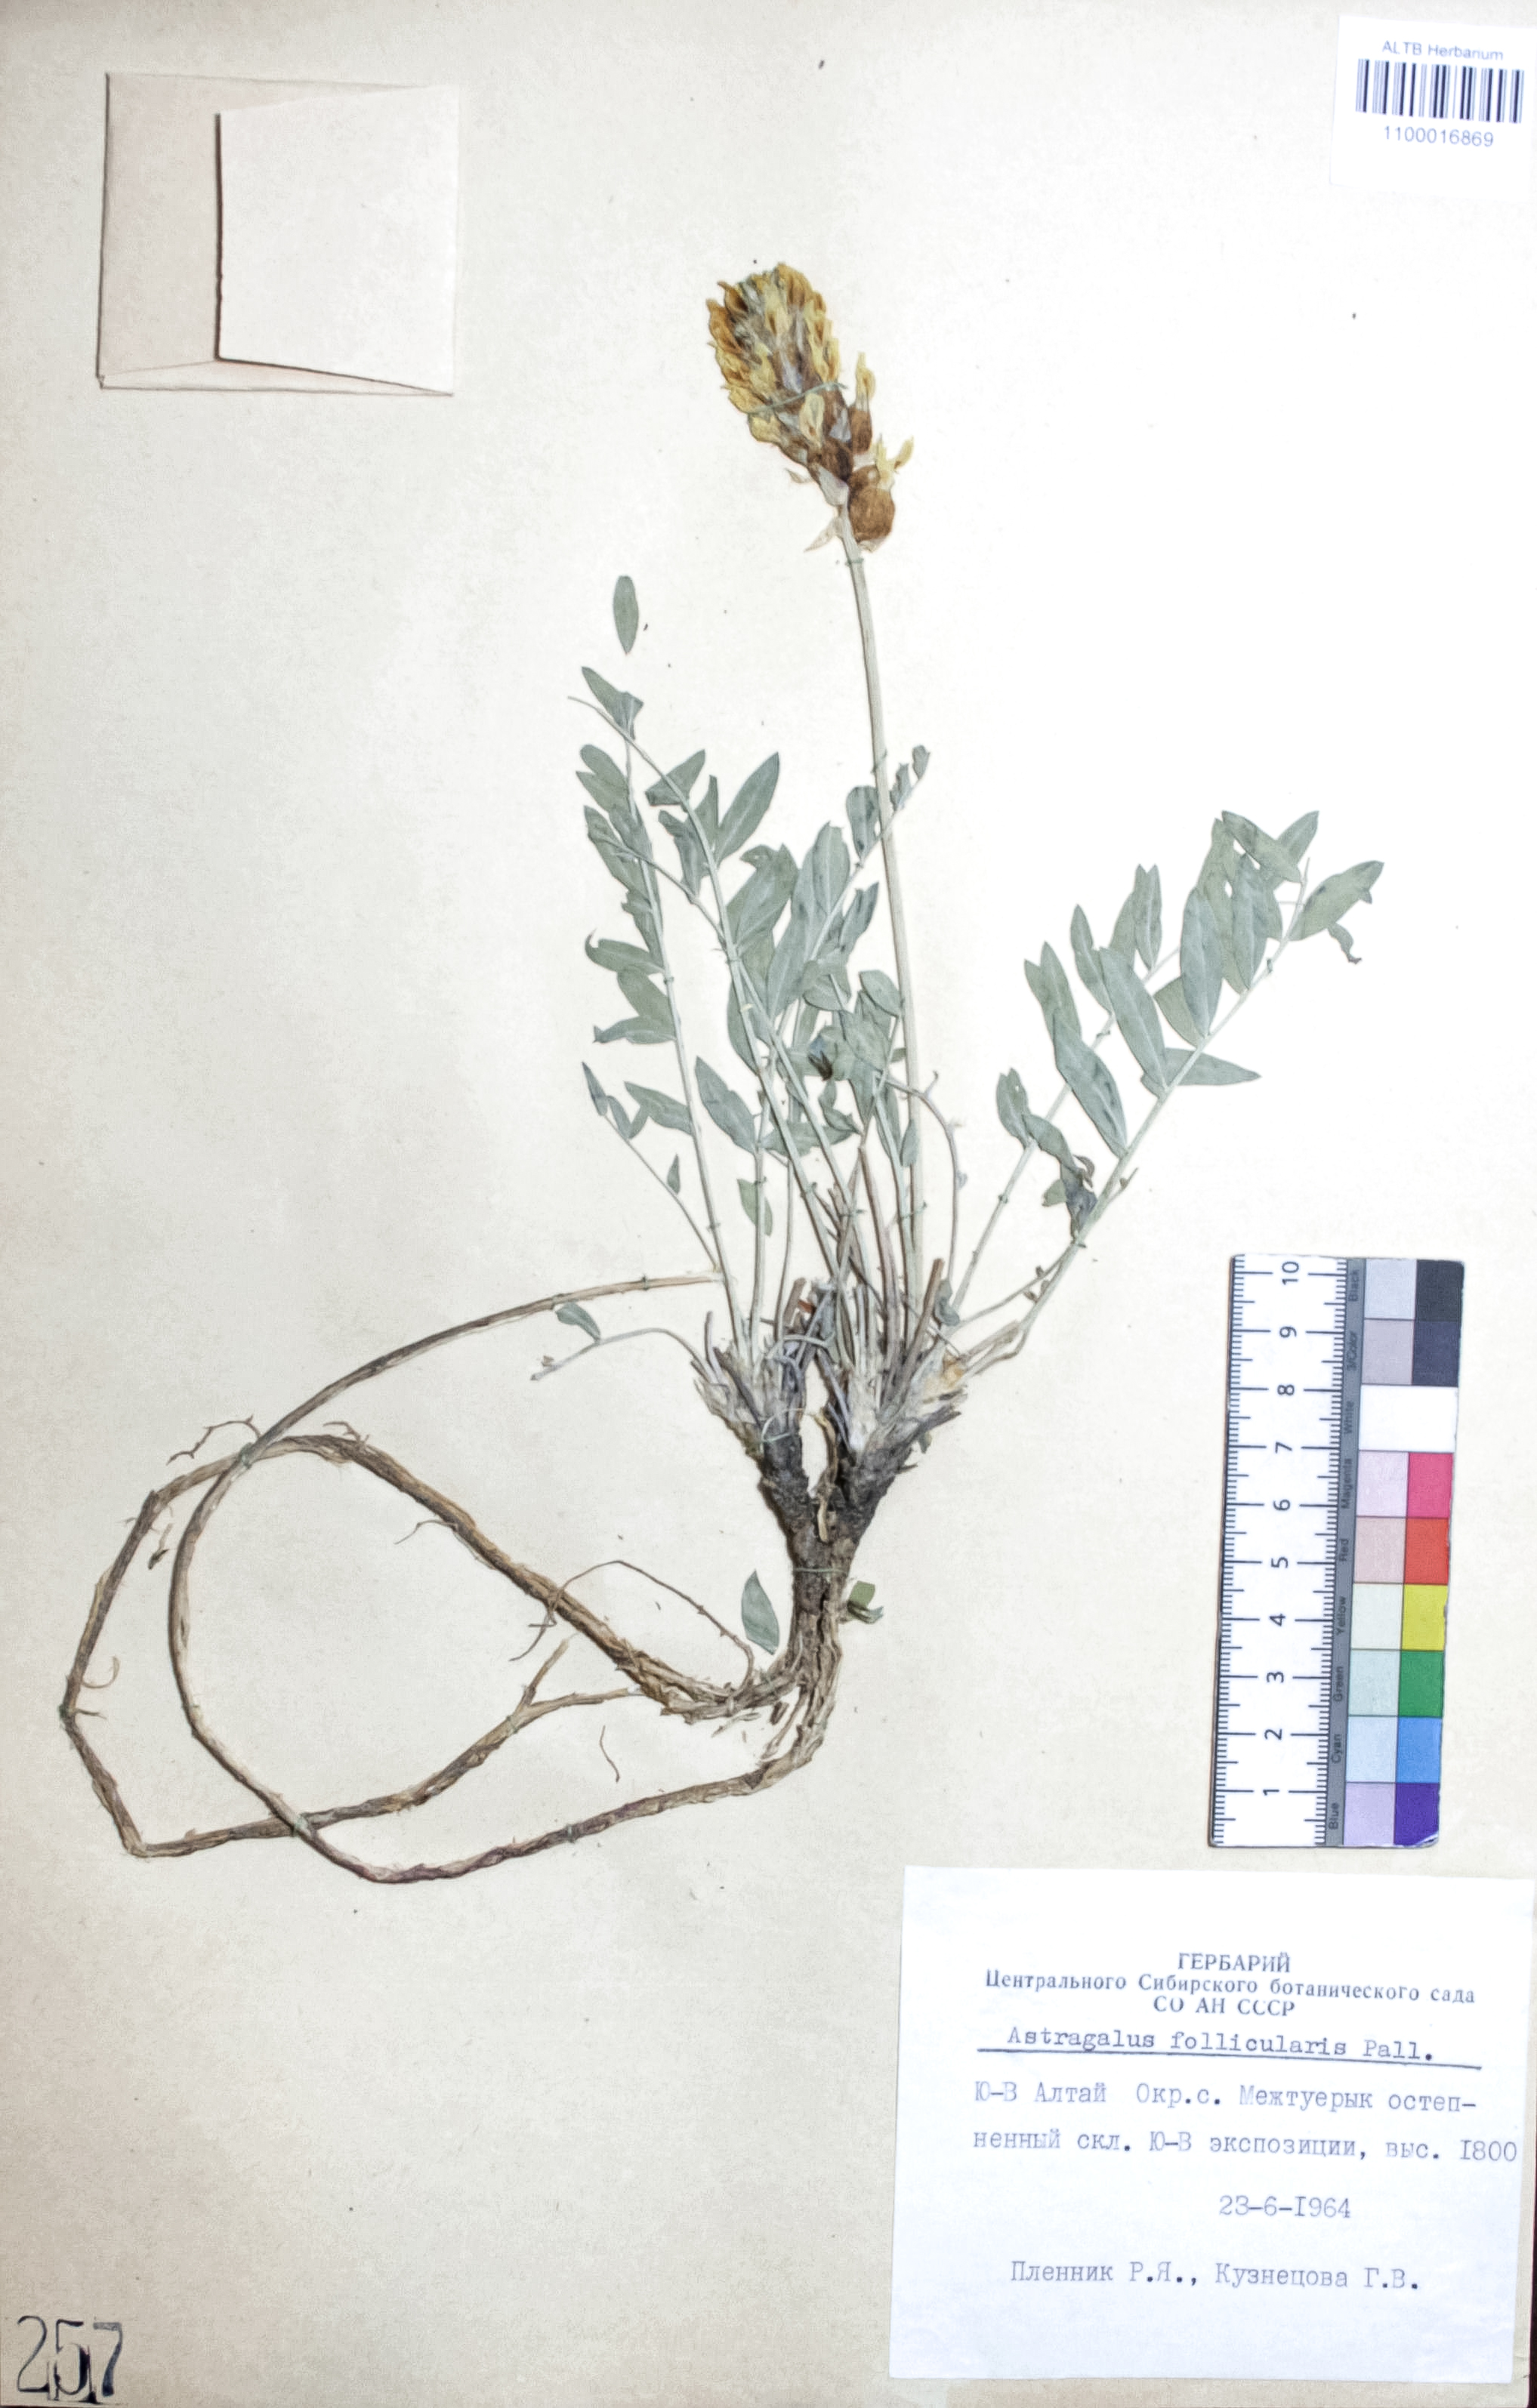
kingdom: Plantae
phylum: Tracheophyta
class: Magnoliopsida
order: Fabales
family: Fabaceae
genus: Astragalus
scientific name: Astragalus follicularis
